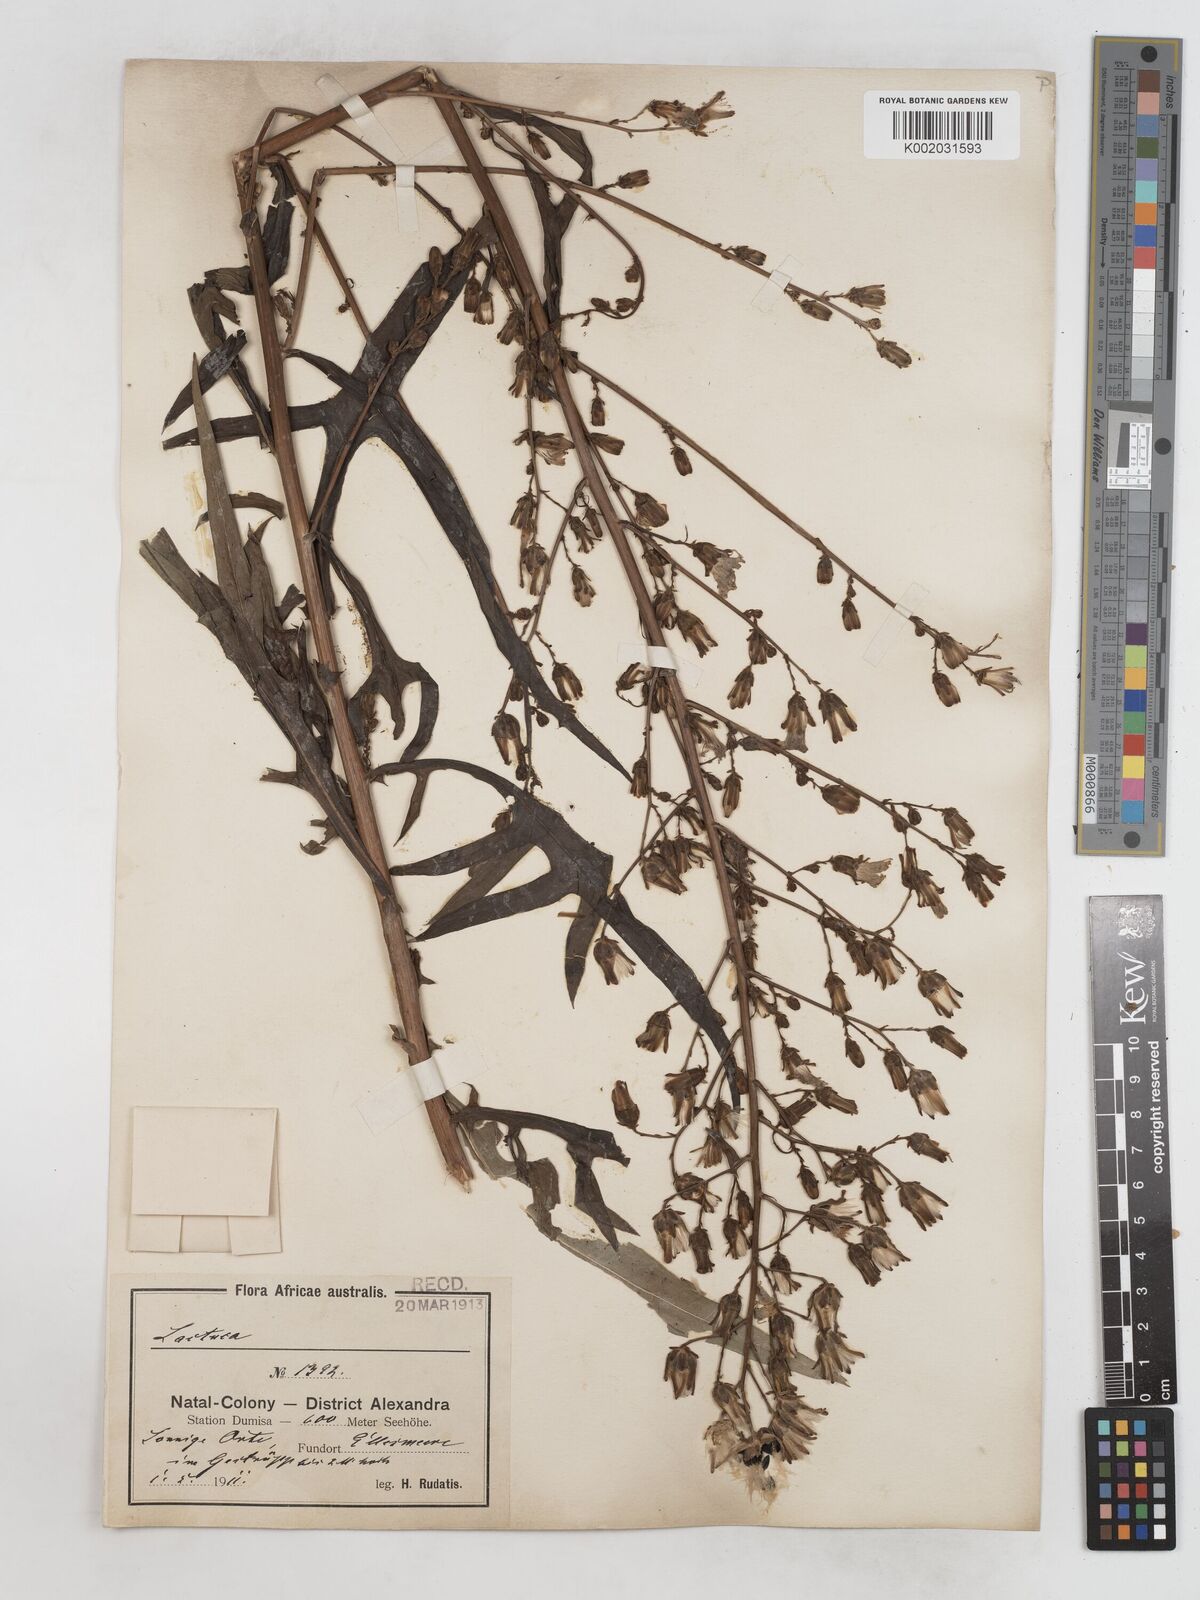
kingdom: Plantae
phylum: Tracheophyta
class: Magnoliopsida
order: Asterales
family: Asteraceae
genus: Lactuca
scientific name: Lactuca indica
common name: Wild lettuce
